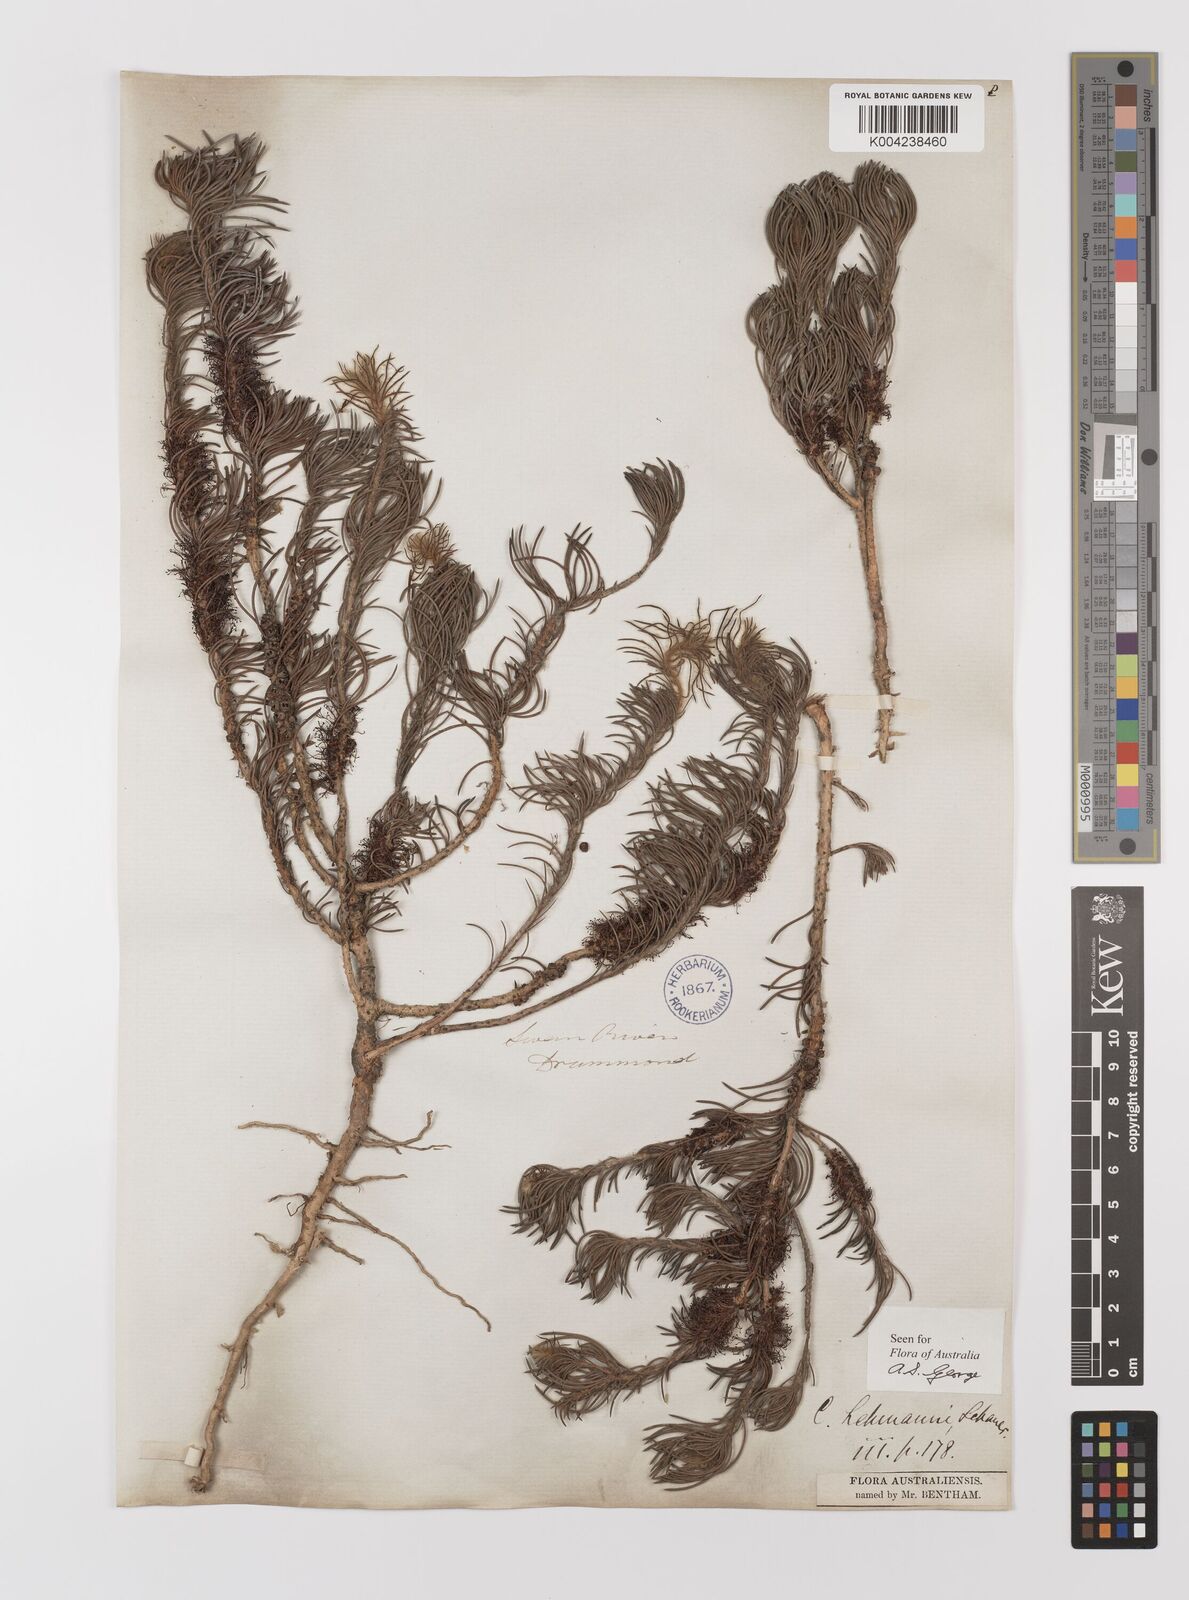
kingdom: Plantae
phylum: Tracheophyta
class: Magnoliopsida
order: Myrtales
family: Myrtaceae
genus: Melaleuca
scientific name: Melaleuca johannis-lehmannii
